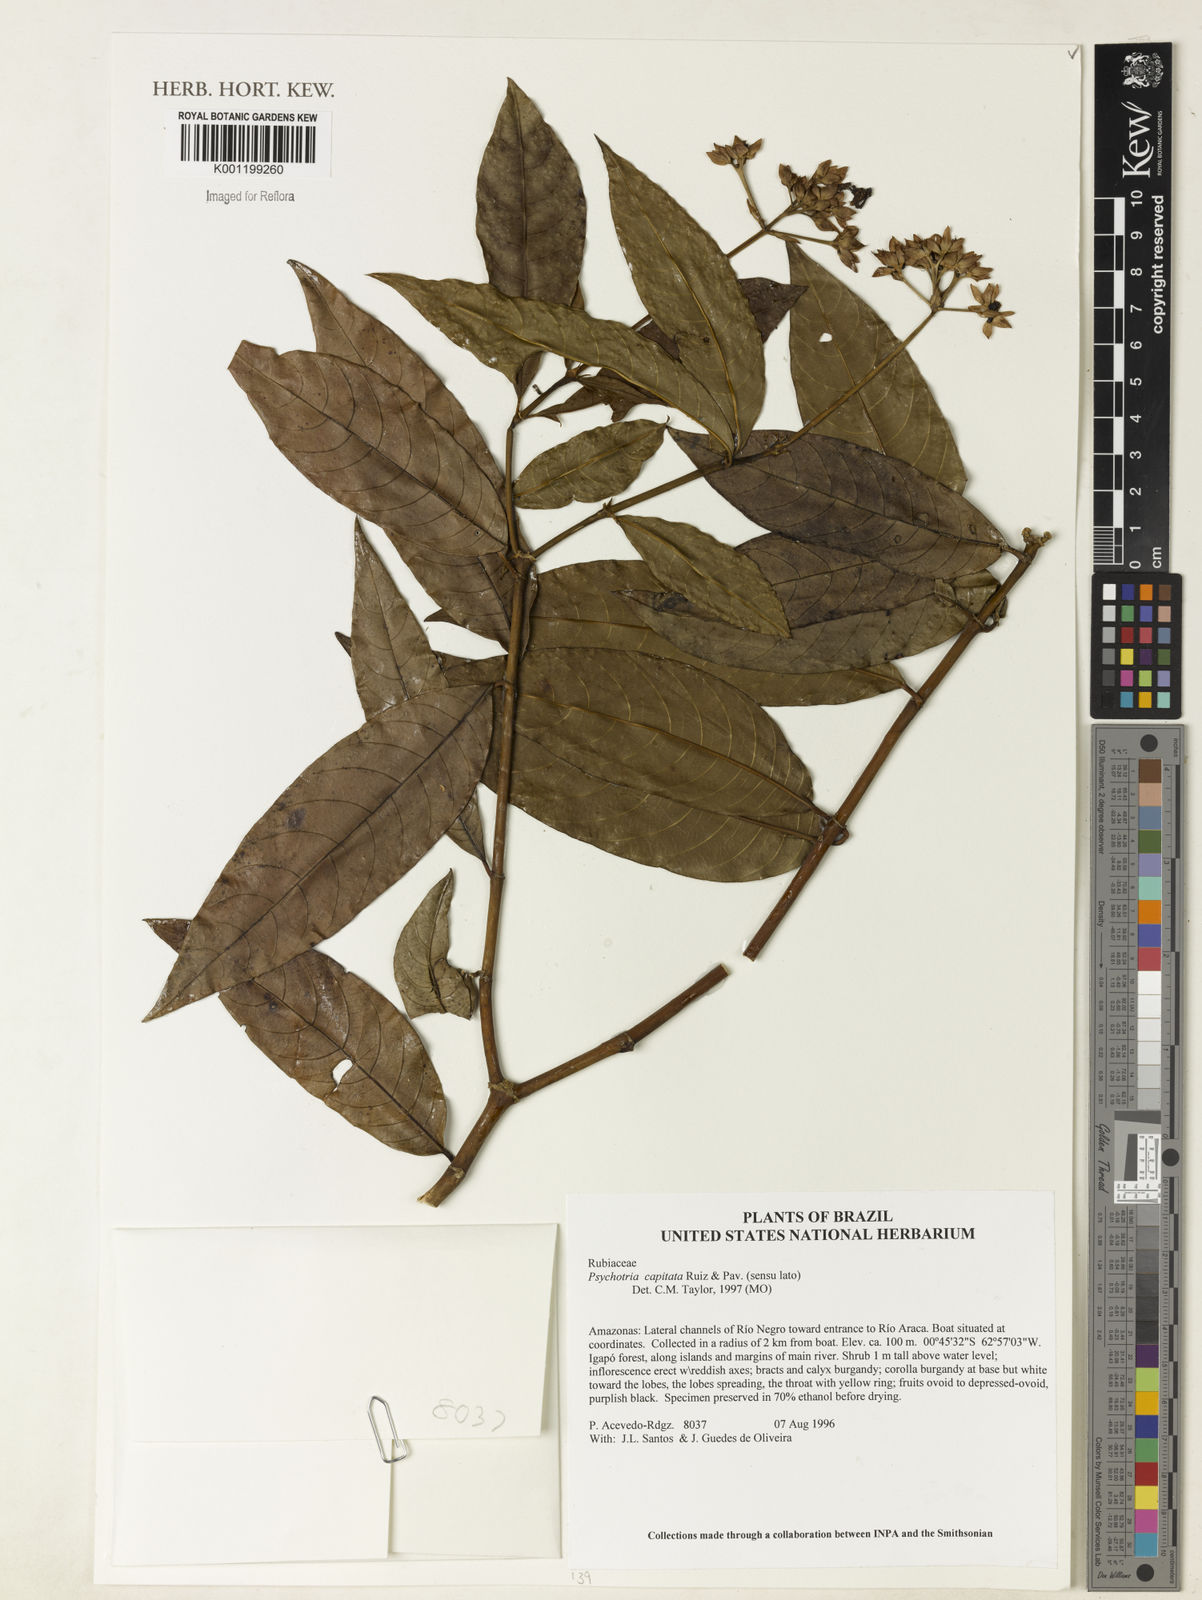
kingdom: Plantae
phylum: Tracheophyta
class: Magnoliopsida
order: Gentianales
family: Rubiaceae
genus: Palicourea
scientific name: Palicourea violacea
